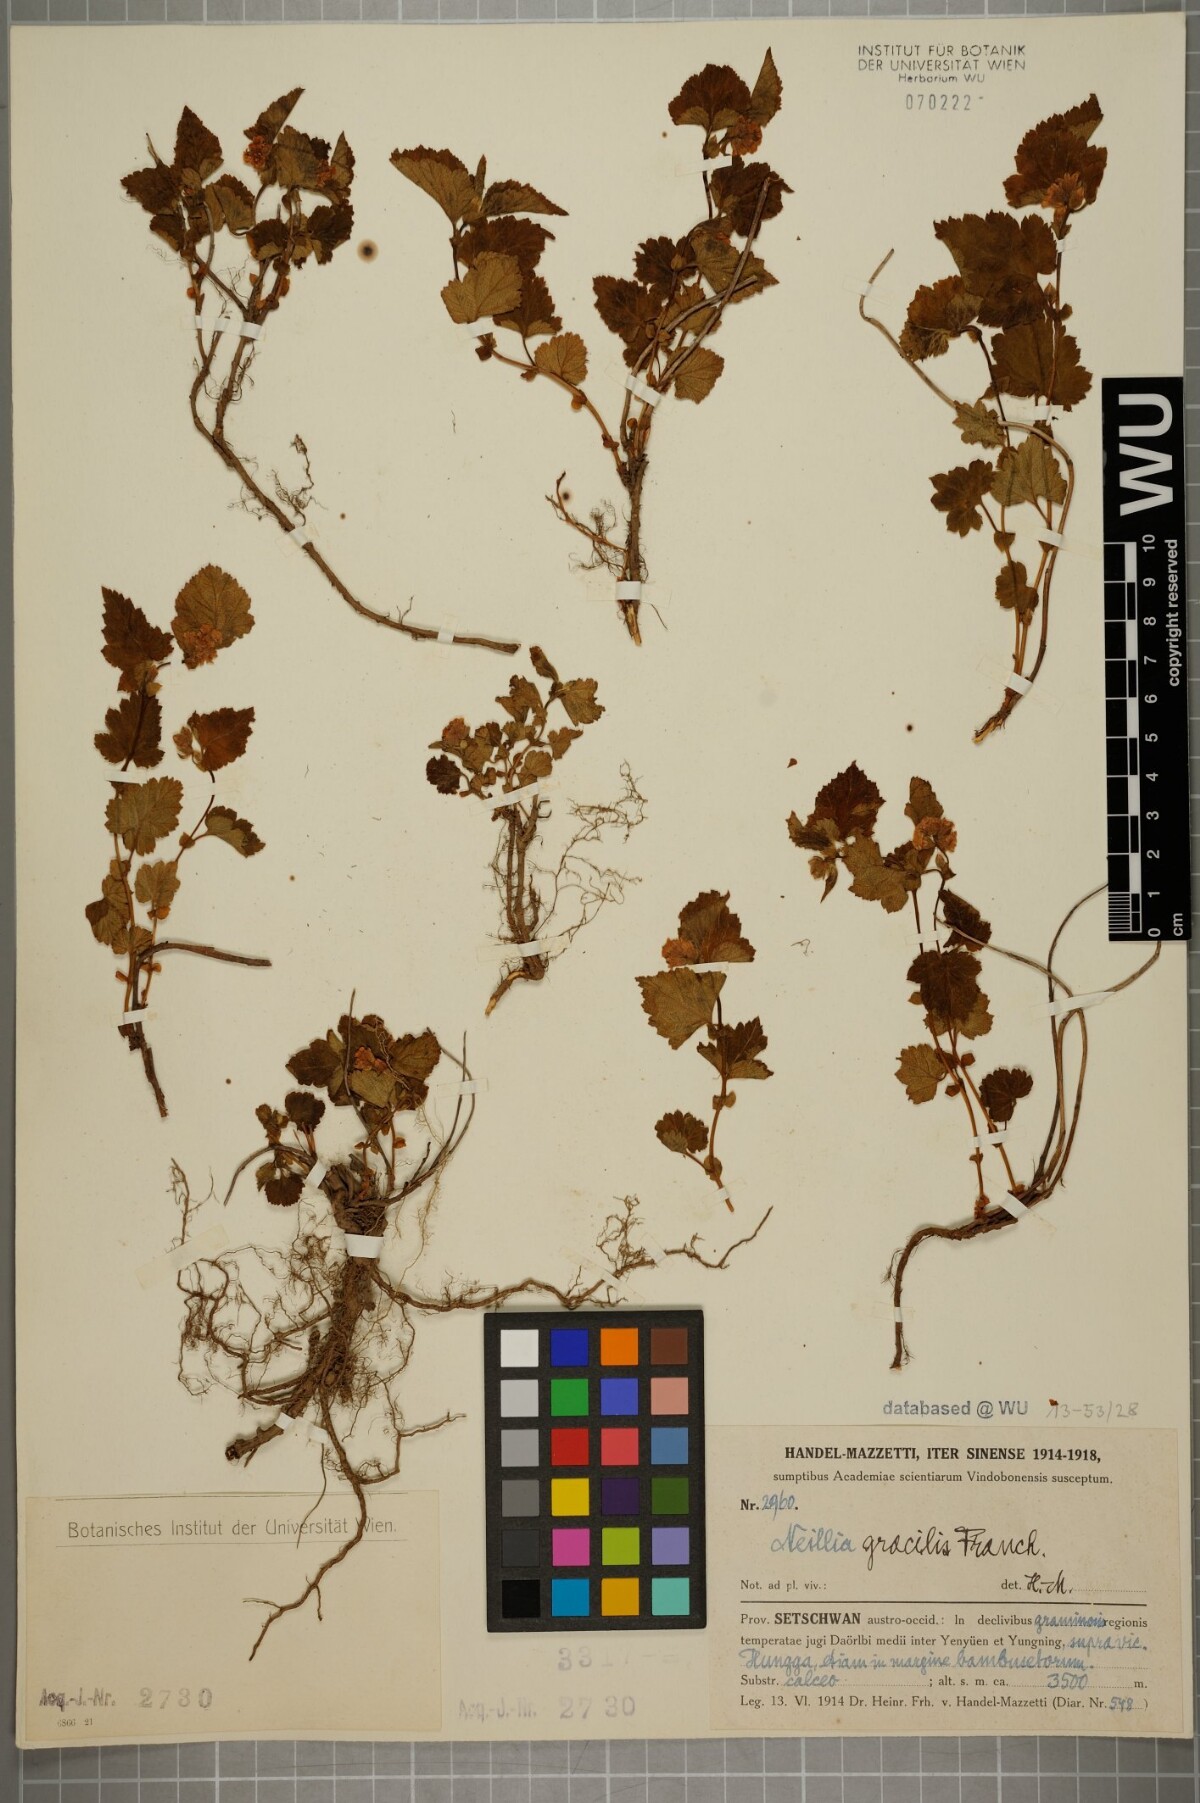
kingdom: Plantae
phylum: Tracheophyta
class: Magnoliopsida
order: Rosales
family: Rosaceae
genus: Neillia
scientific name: Neillia gracilis
